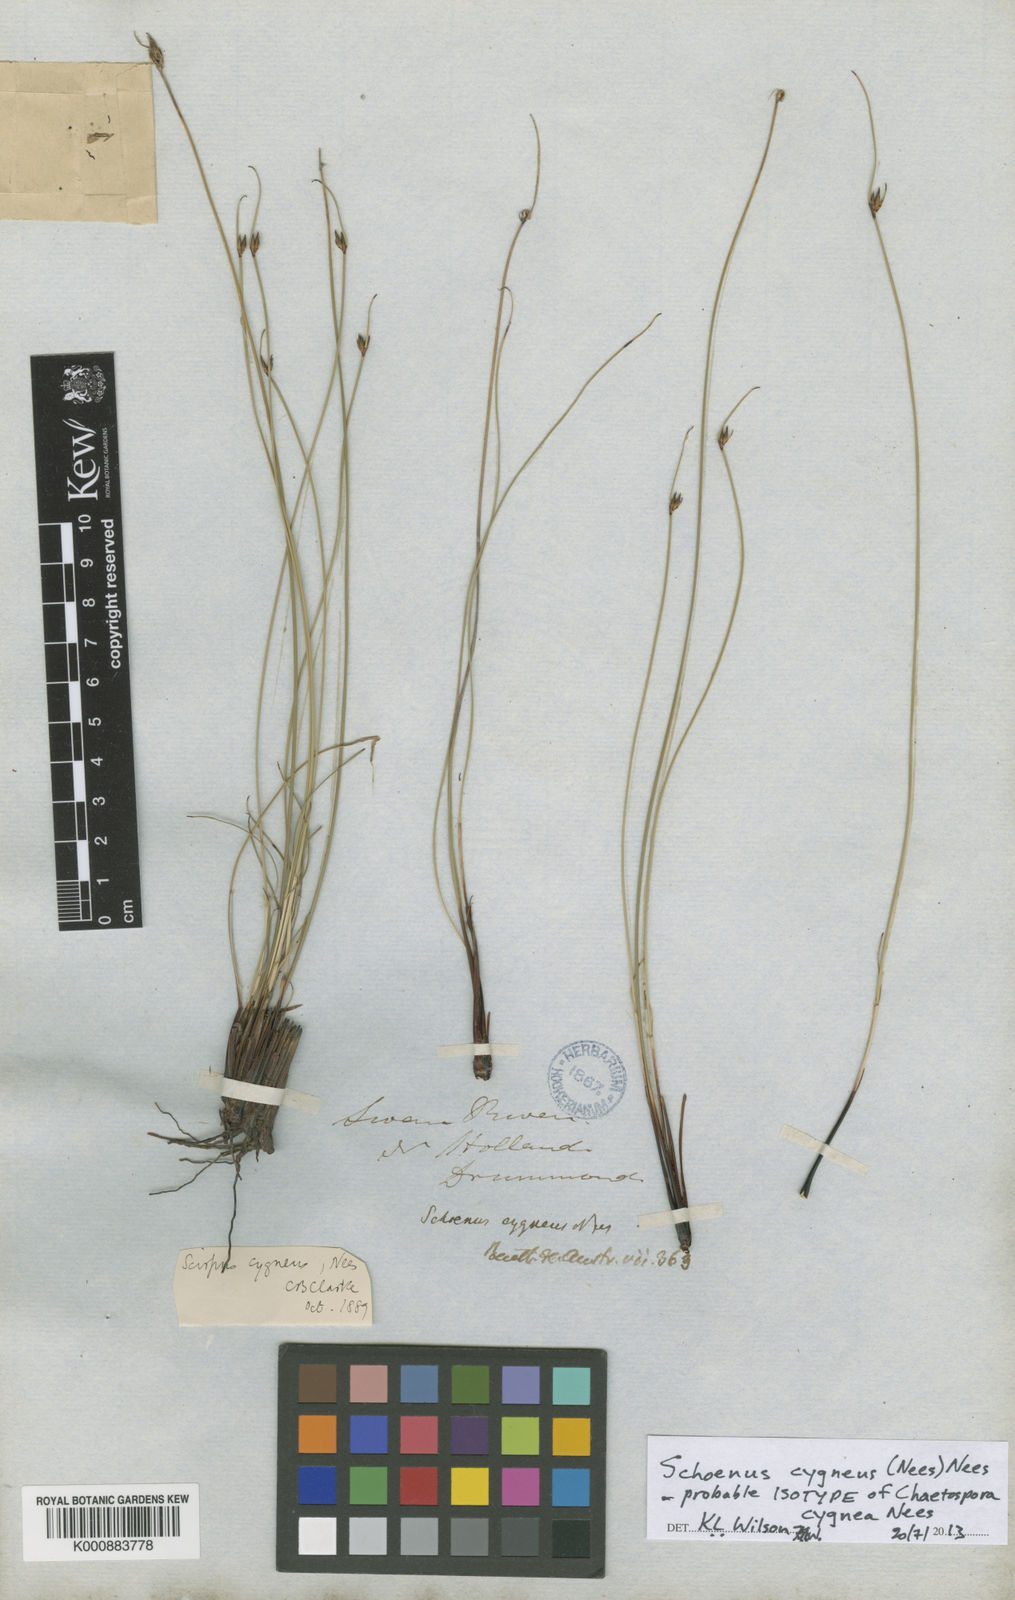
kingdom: Plantae
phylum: Tracheophyta
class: Liliopsida
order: Poales
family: Cyperaceae
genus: Schoenus
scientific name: Schoenus cygneus
